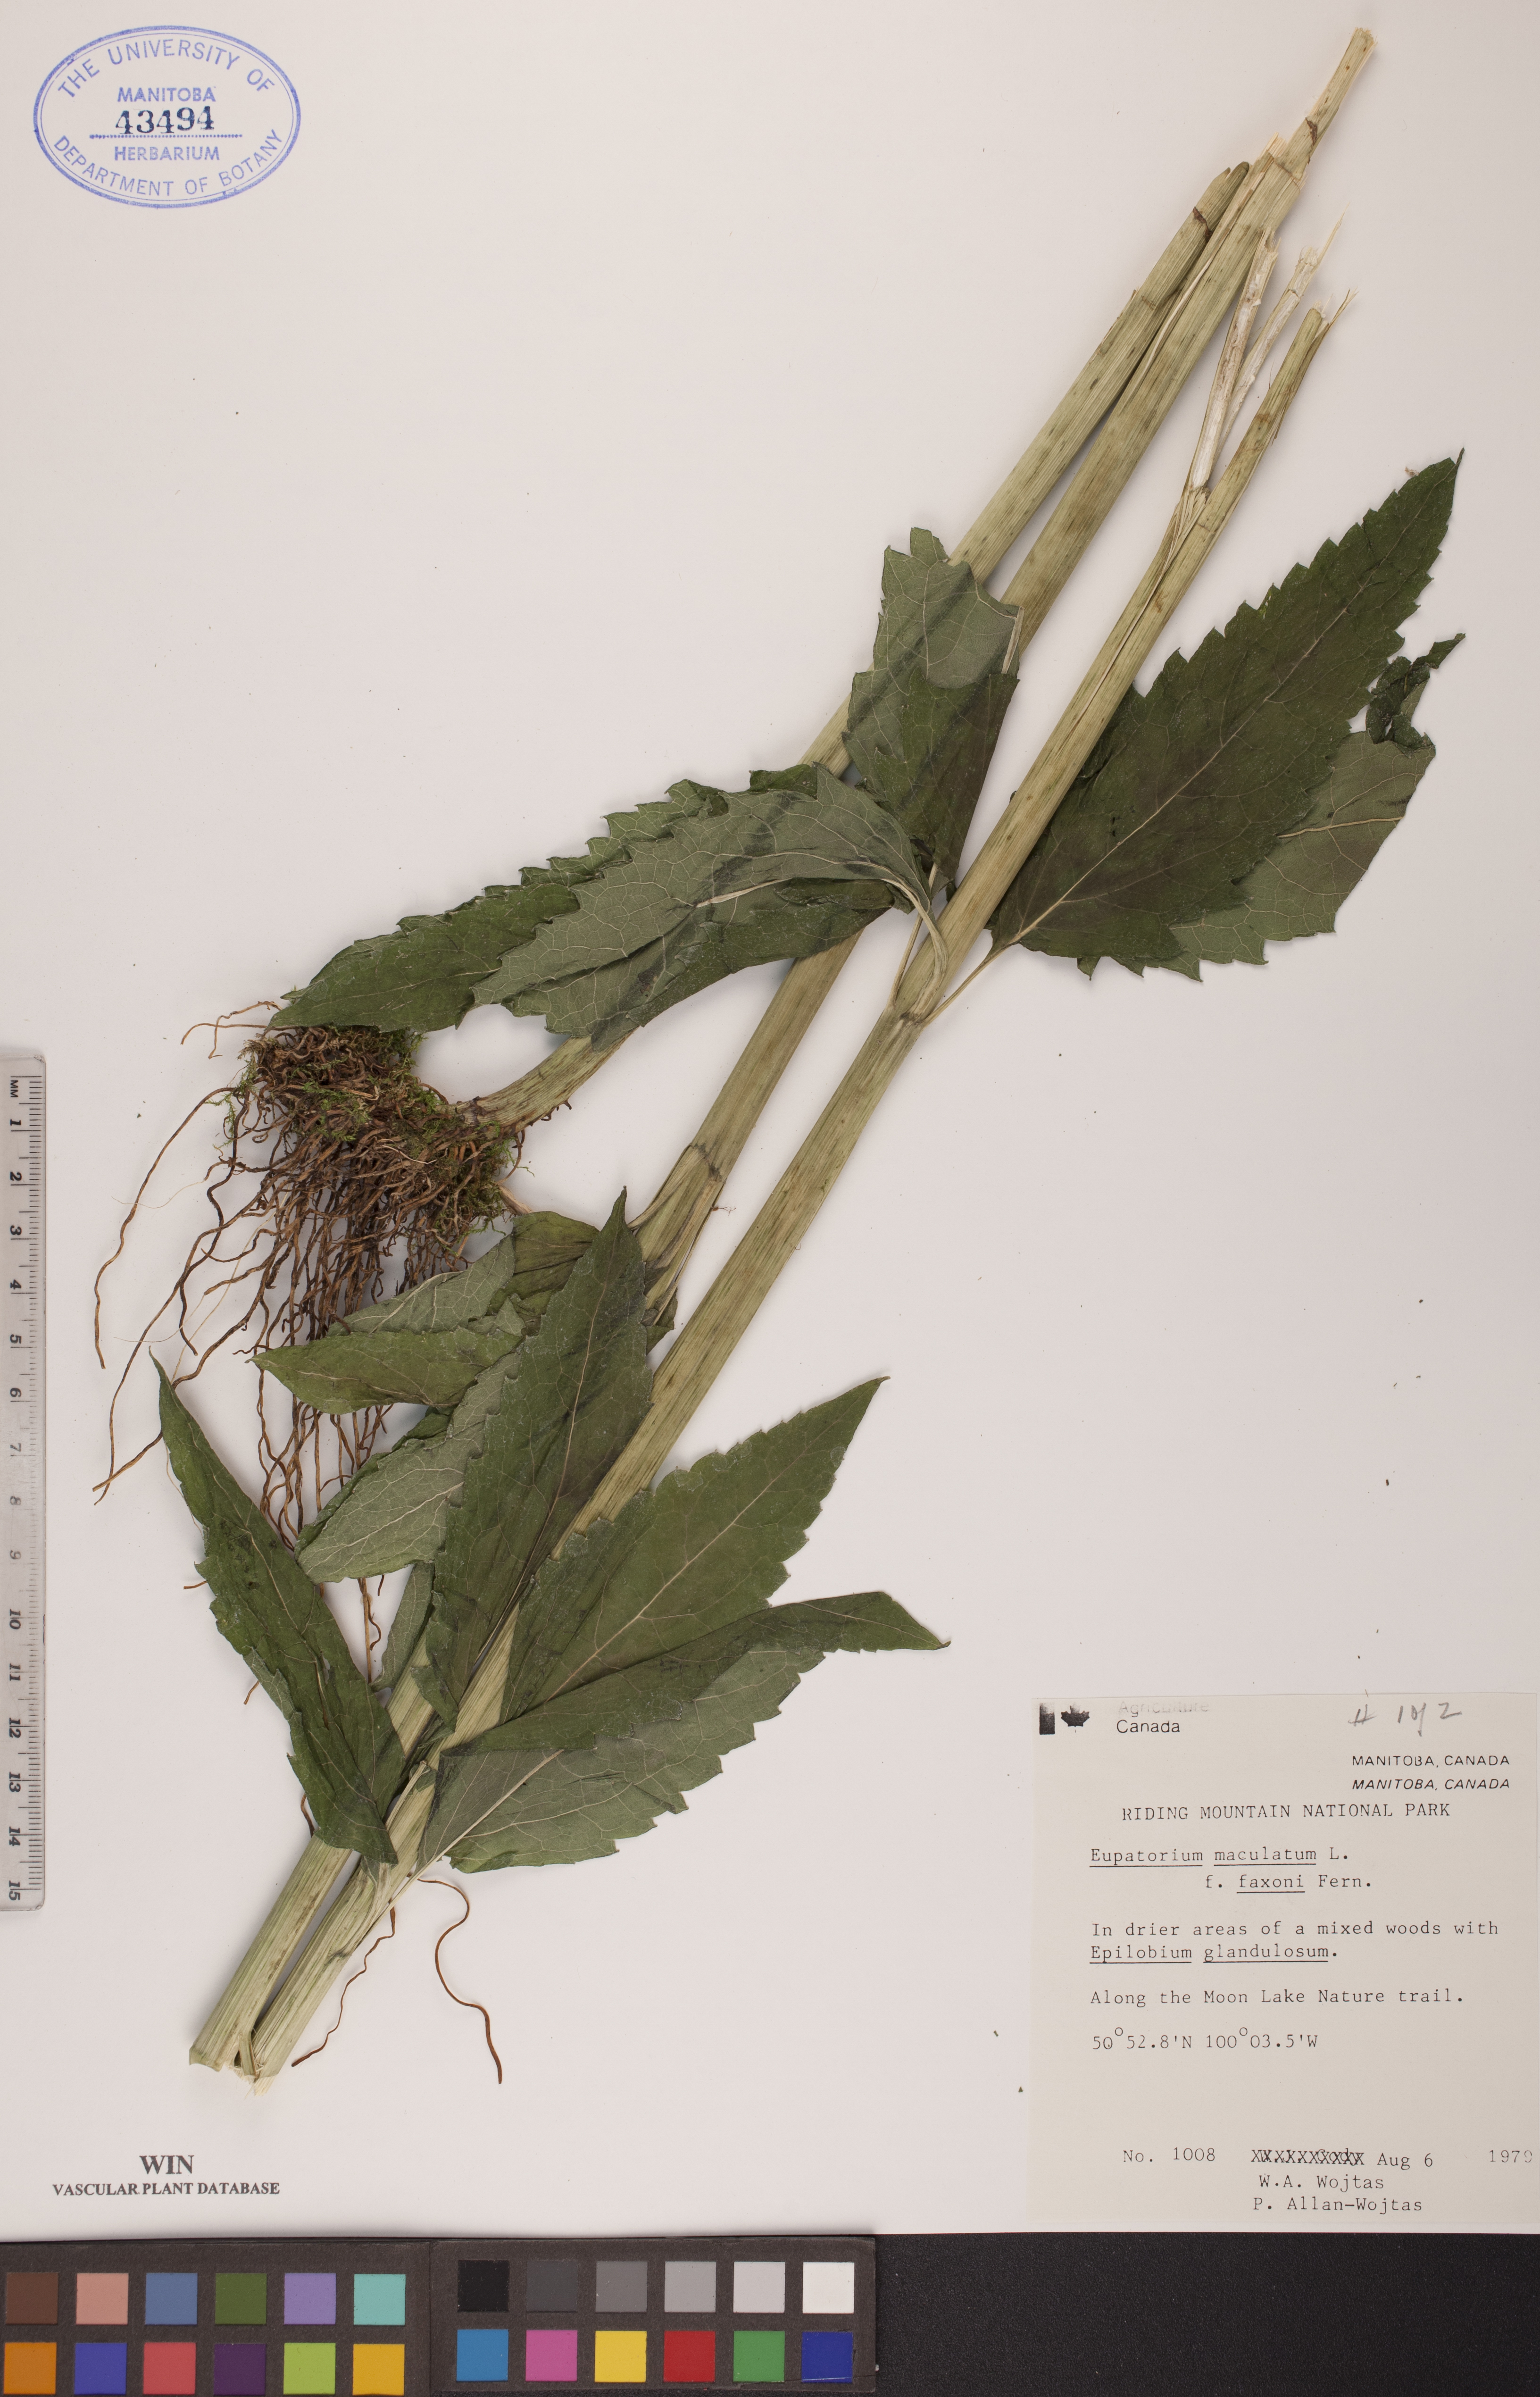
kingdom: Plantae
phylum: Tracheophyta
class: Magnoliopsida
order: Asterales
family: Asteraceae
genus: Eutrochium
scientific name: Eutrochium maculatum
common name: Spotted joe pye weed
